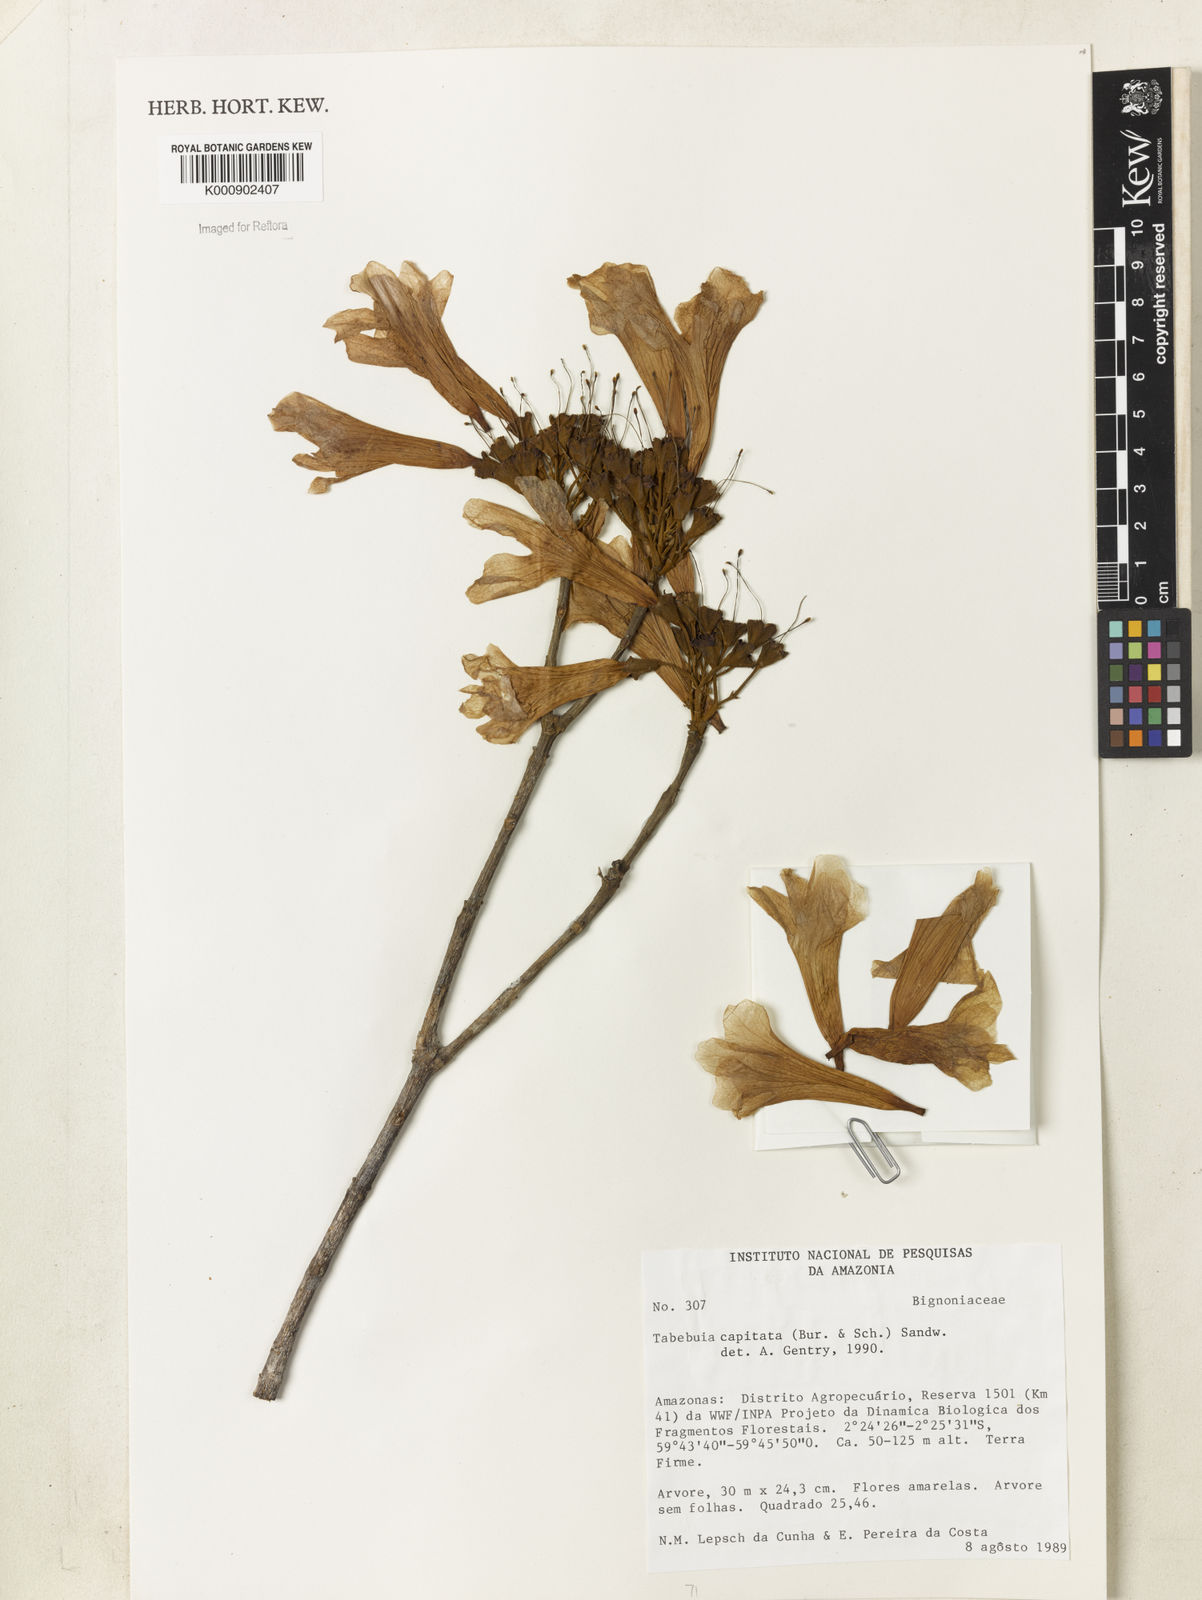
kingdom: Plantae
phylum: Tracheophyta
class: Magnoliopsida
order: Lamiales
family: Bignoniaceae
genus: Handroanthus
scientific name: Handroanthus capitatus
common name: Trumpet trees
